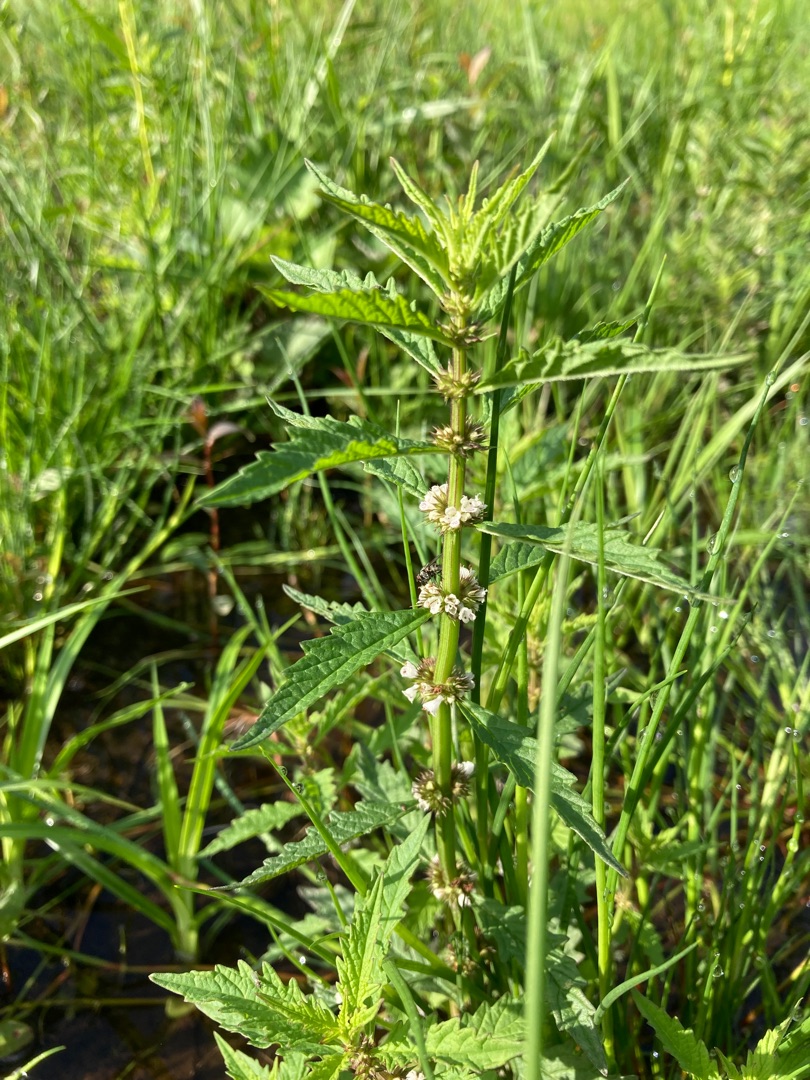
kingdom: Plantae
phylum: Tracheophyta
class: Magnoliopsida
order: Lamiales
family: Lamiaceae
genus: Lycopus
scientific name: Lycopus europaeus
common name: Sværtevæld
